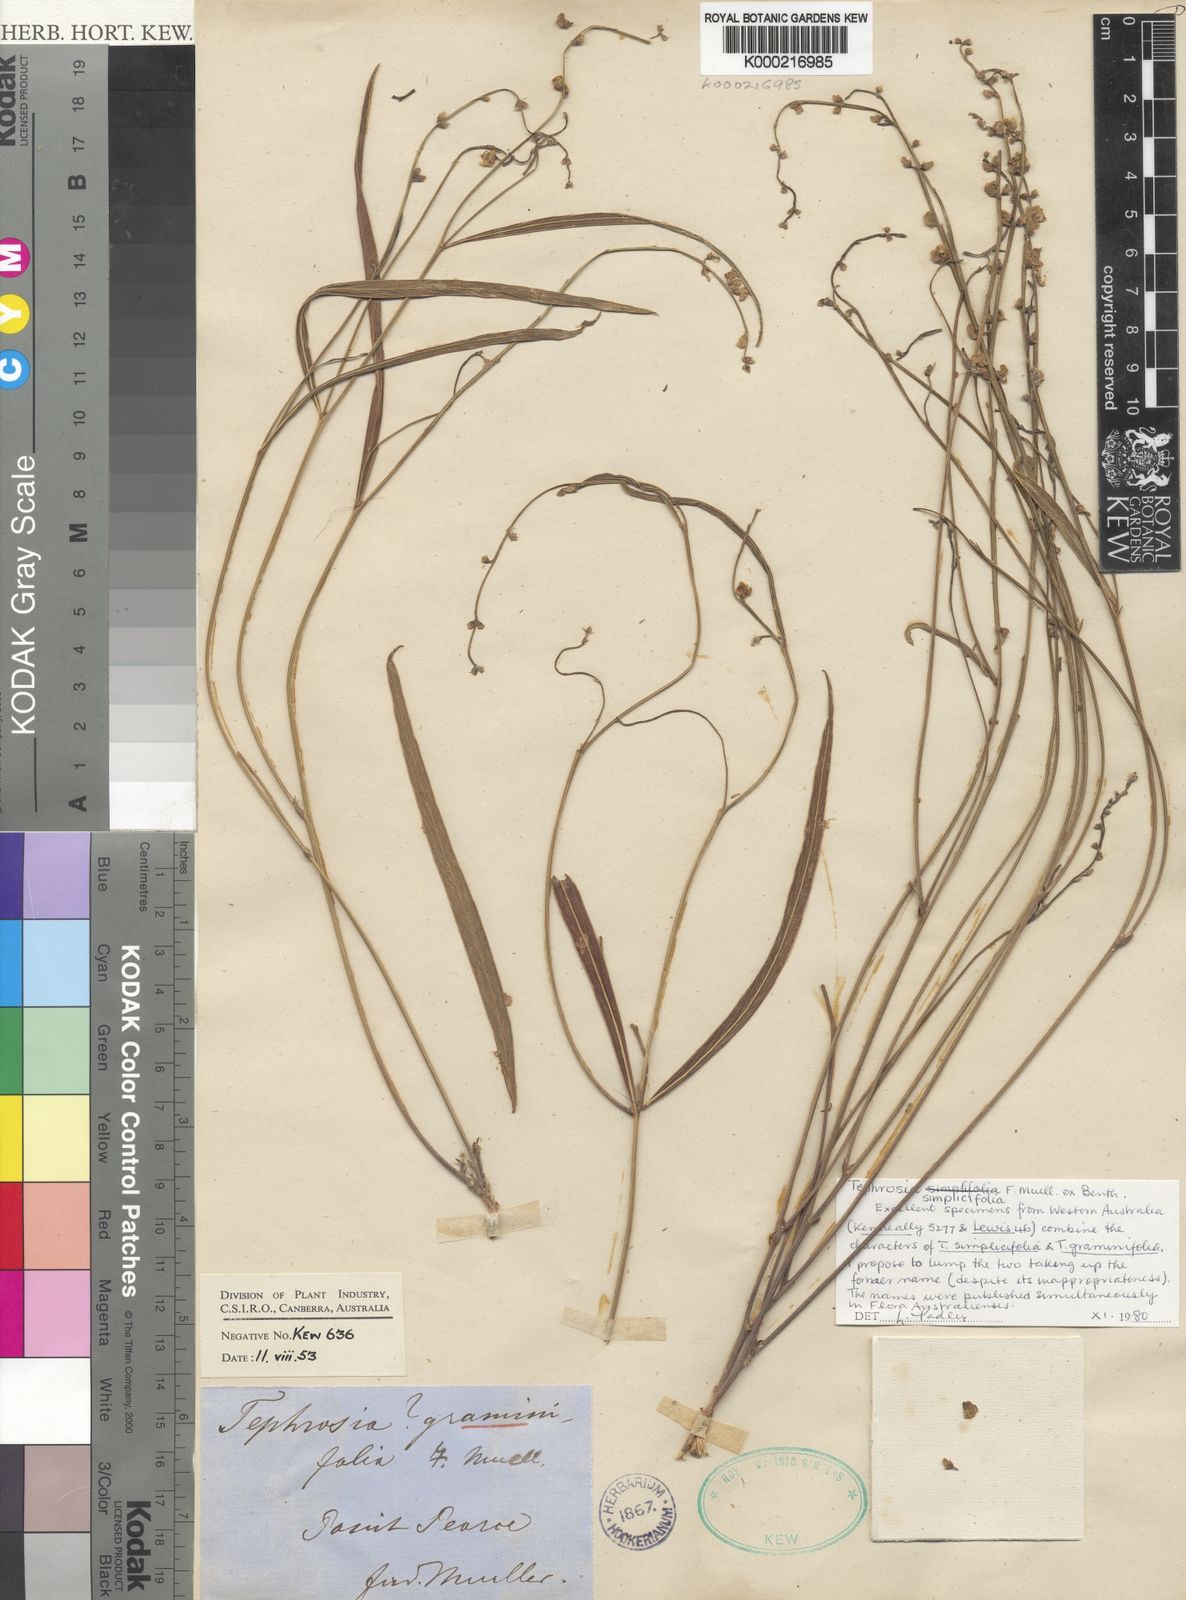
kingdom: Plantae
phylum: Tracheophyta
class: Magnoliopsida
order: Fabales
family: Fabaceae
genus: Tephrosia
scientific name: Tephrosia simplicifolia
